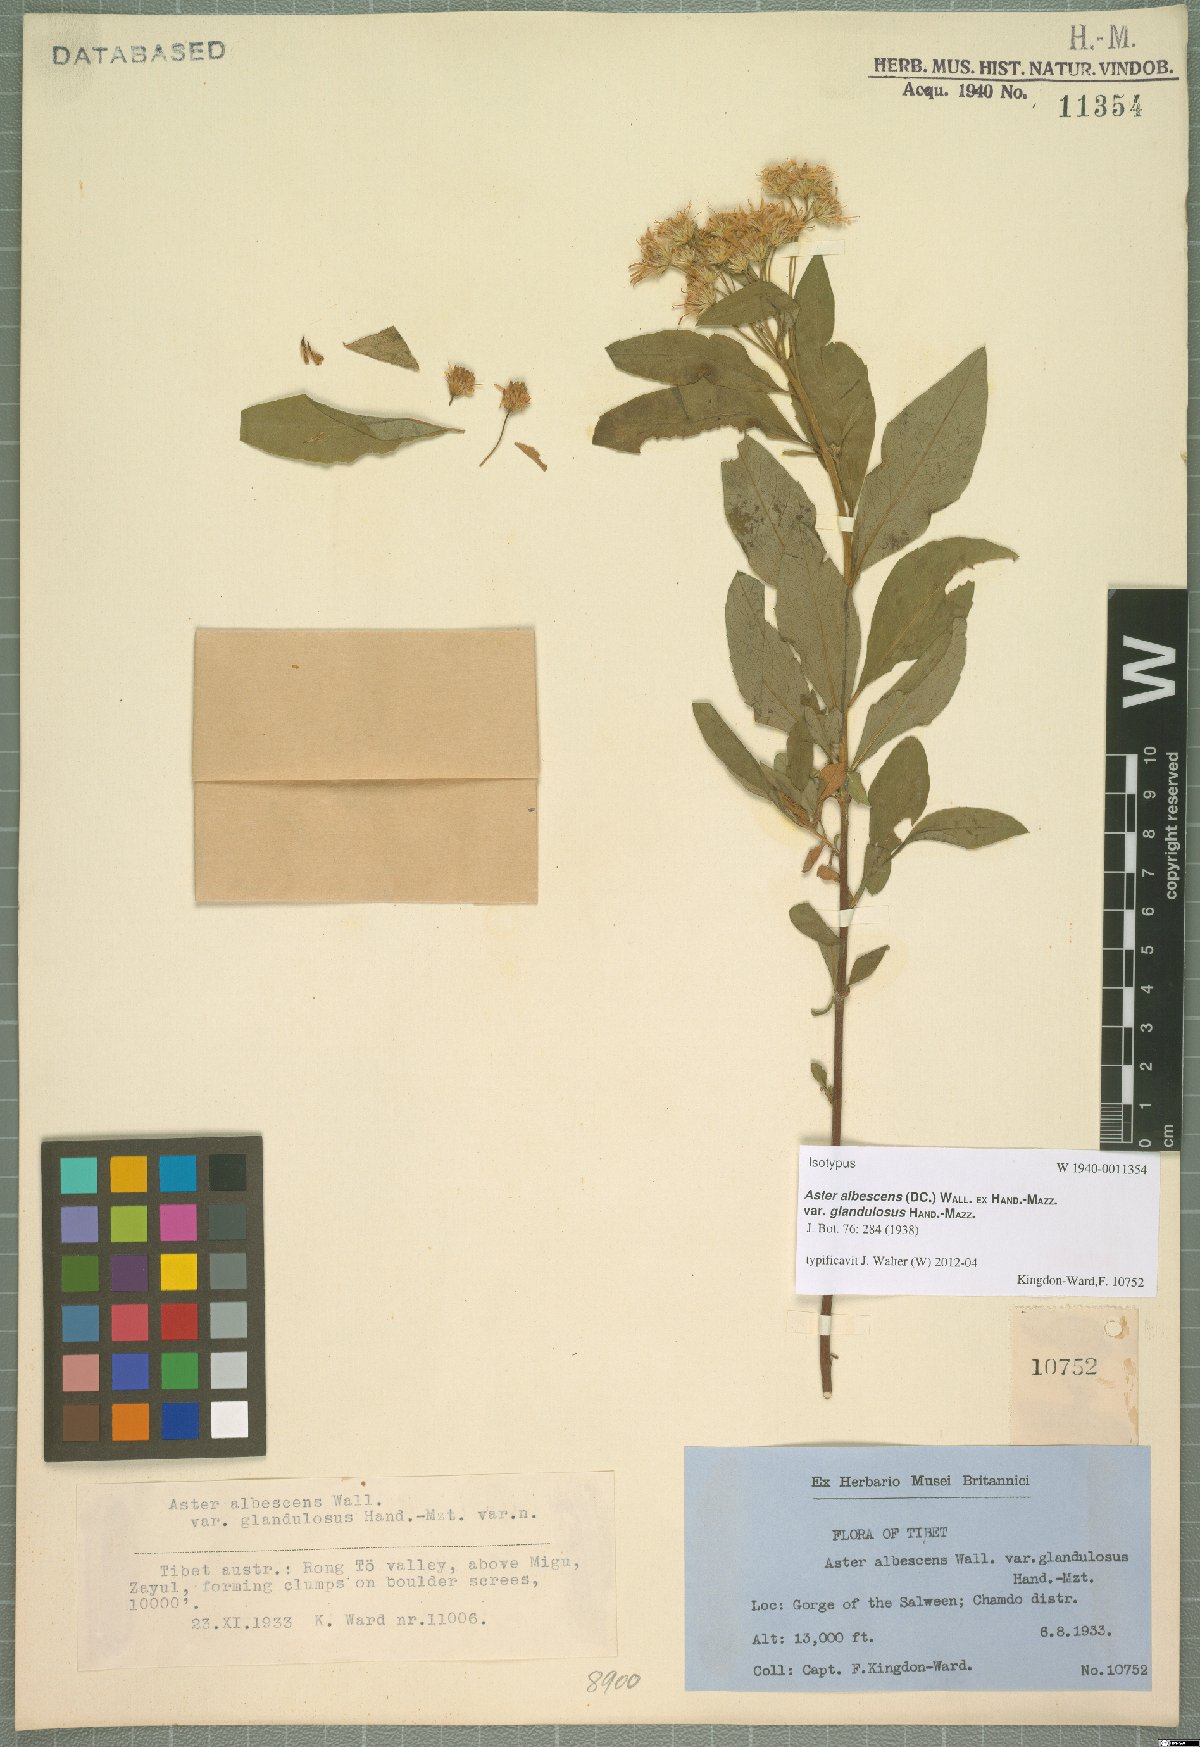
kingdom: Plantae
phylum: Tracheophyta
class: Magnoliopsida
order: Asterales
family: Asteraceae
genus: Sinosidus
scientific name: Sinosidus albescens
